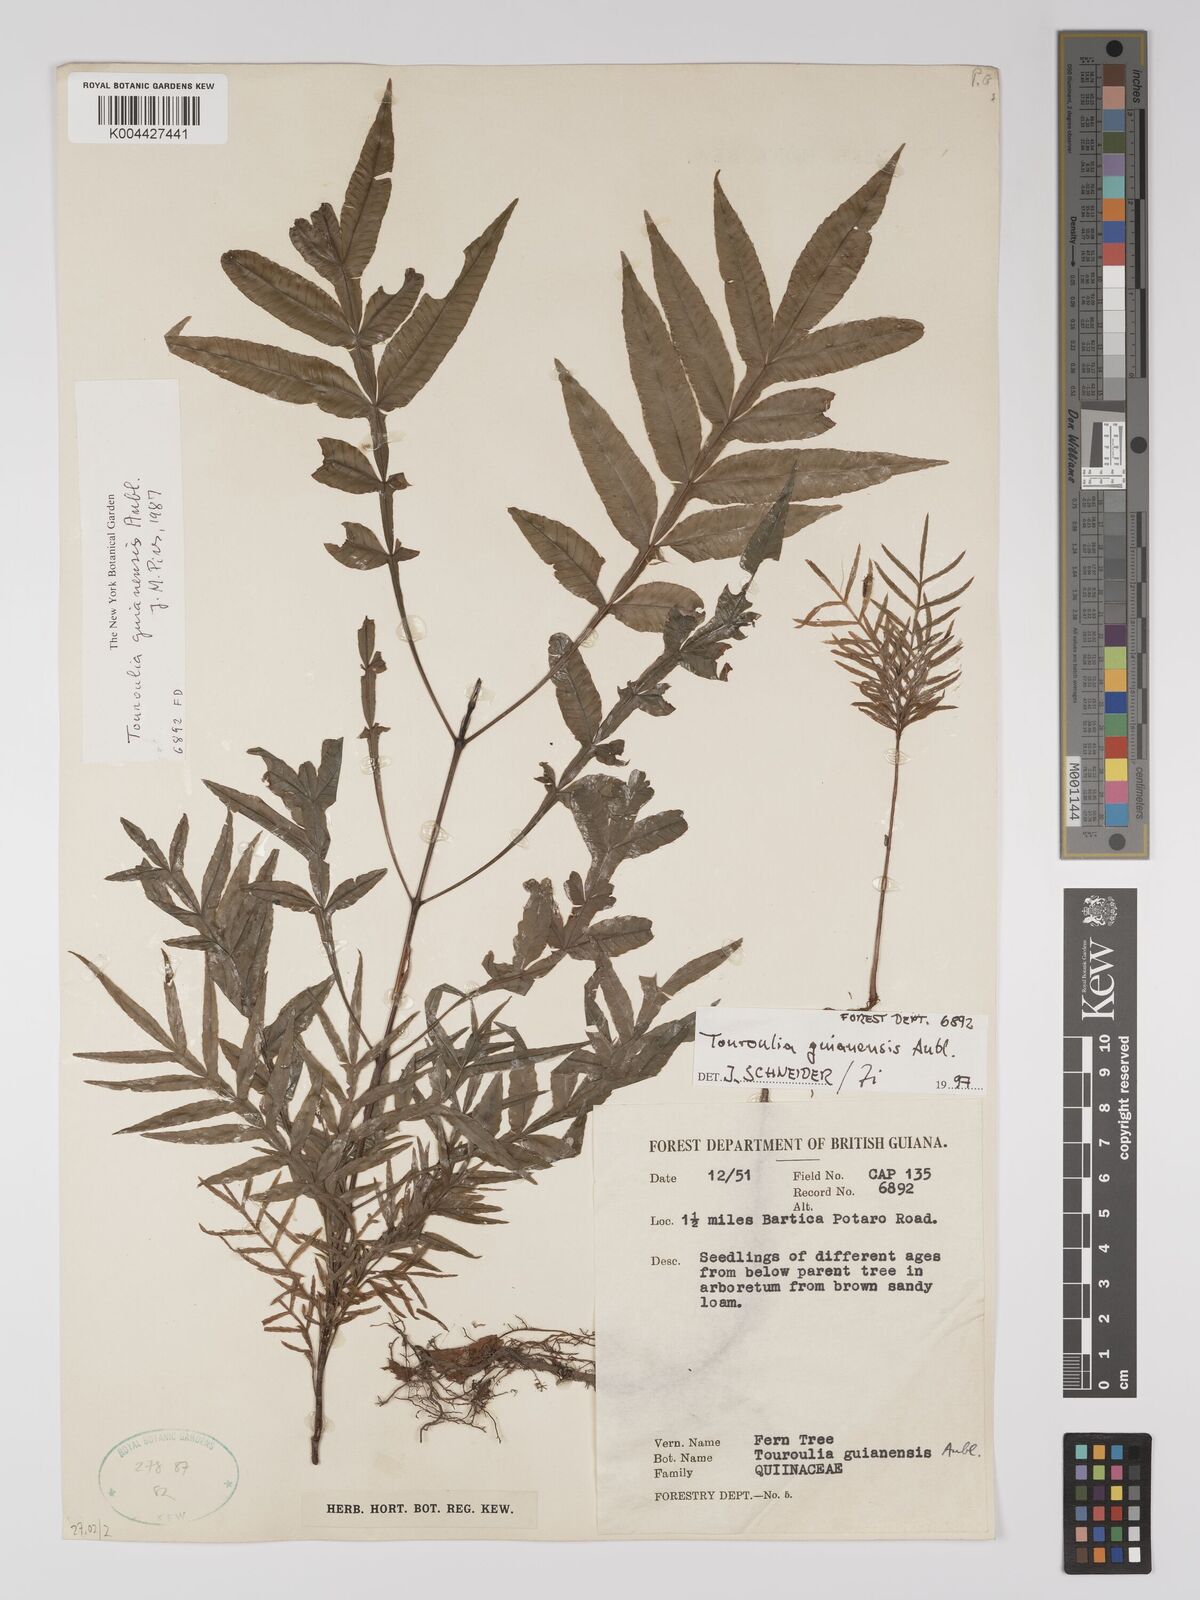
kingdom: Plantae
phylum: Tracheophyta
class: Magnoliopsida
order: Malpighiales
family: Quiinaceae
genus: Touroulia
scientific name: Touroulia guianensis
